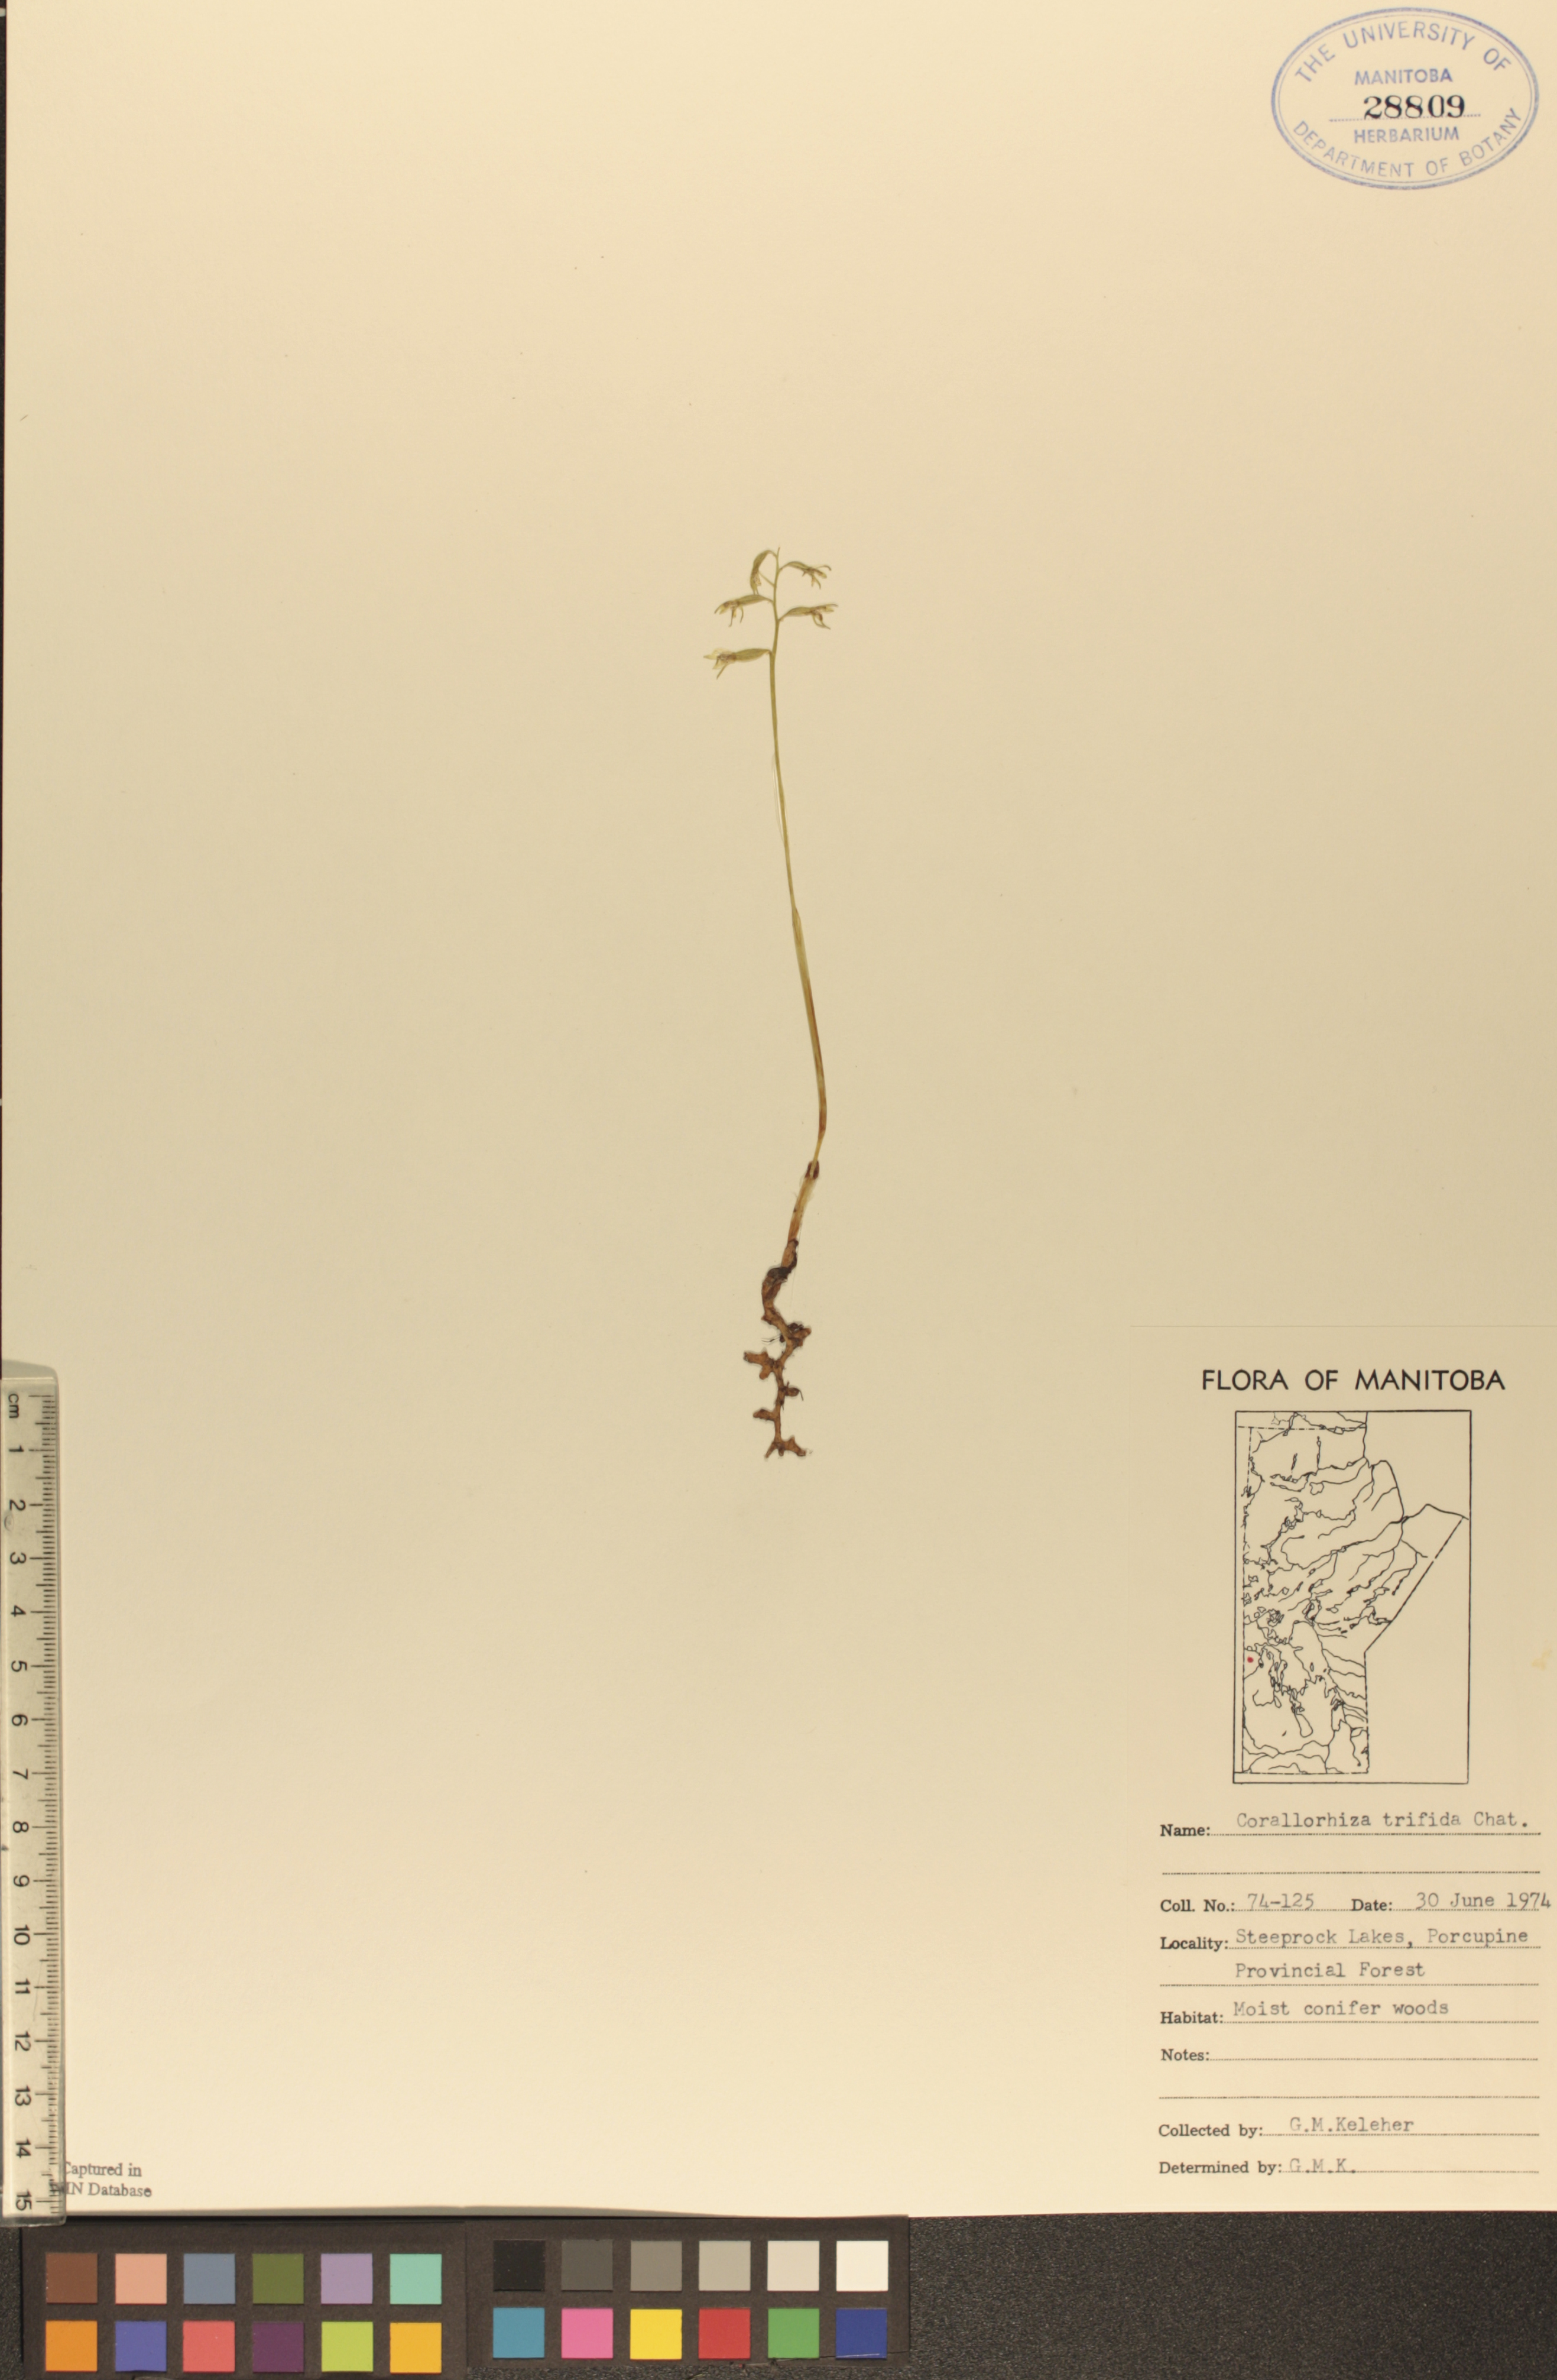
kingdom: Plantae
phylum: Tracheophyta
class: Liliopsida
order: Asparagales
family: Orchidaceae
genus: Corallorhiza
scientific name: Corallorhiza trifida
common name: Yellow coralroot
